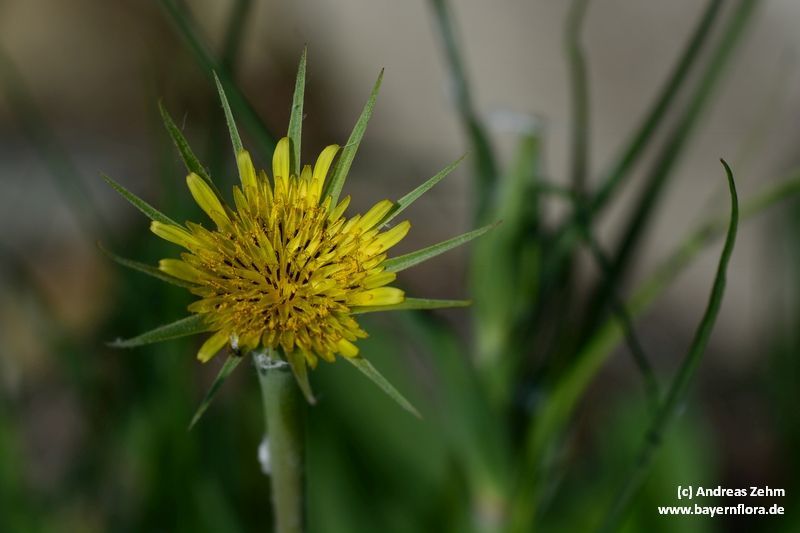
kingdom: Plantae
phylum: Tracheophyta
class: Magnoliopsida
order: Asterales
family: Asteraceae
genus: Tragopogon
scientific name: Tragopogon dubius
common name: Yellow salsify
